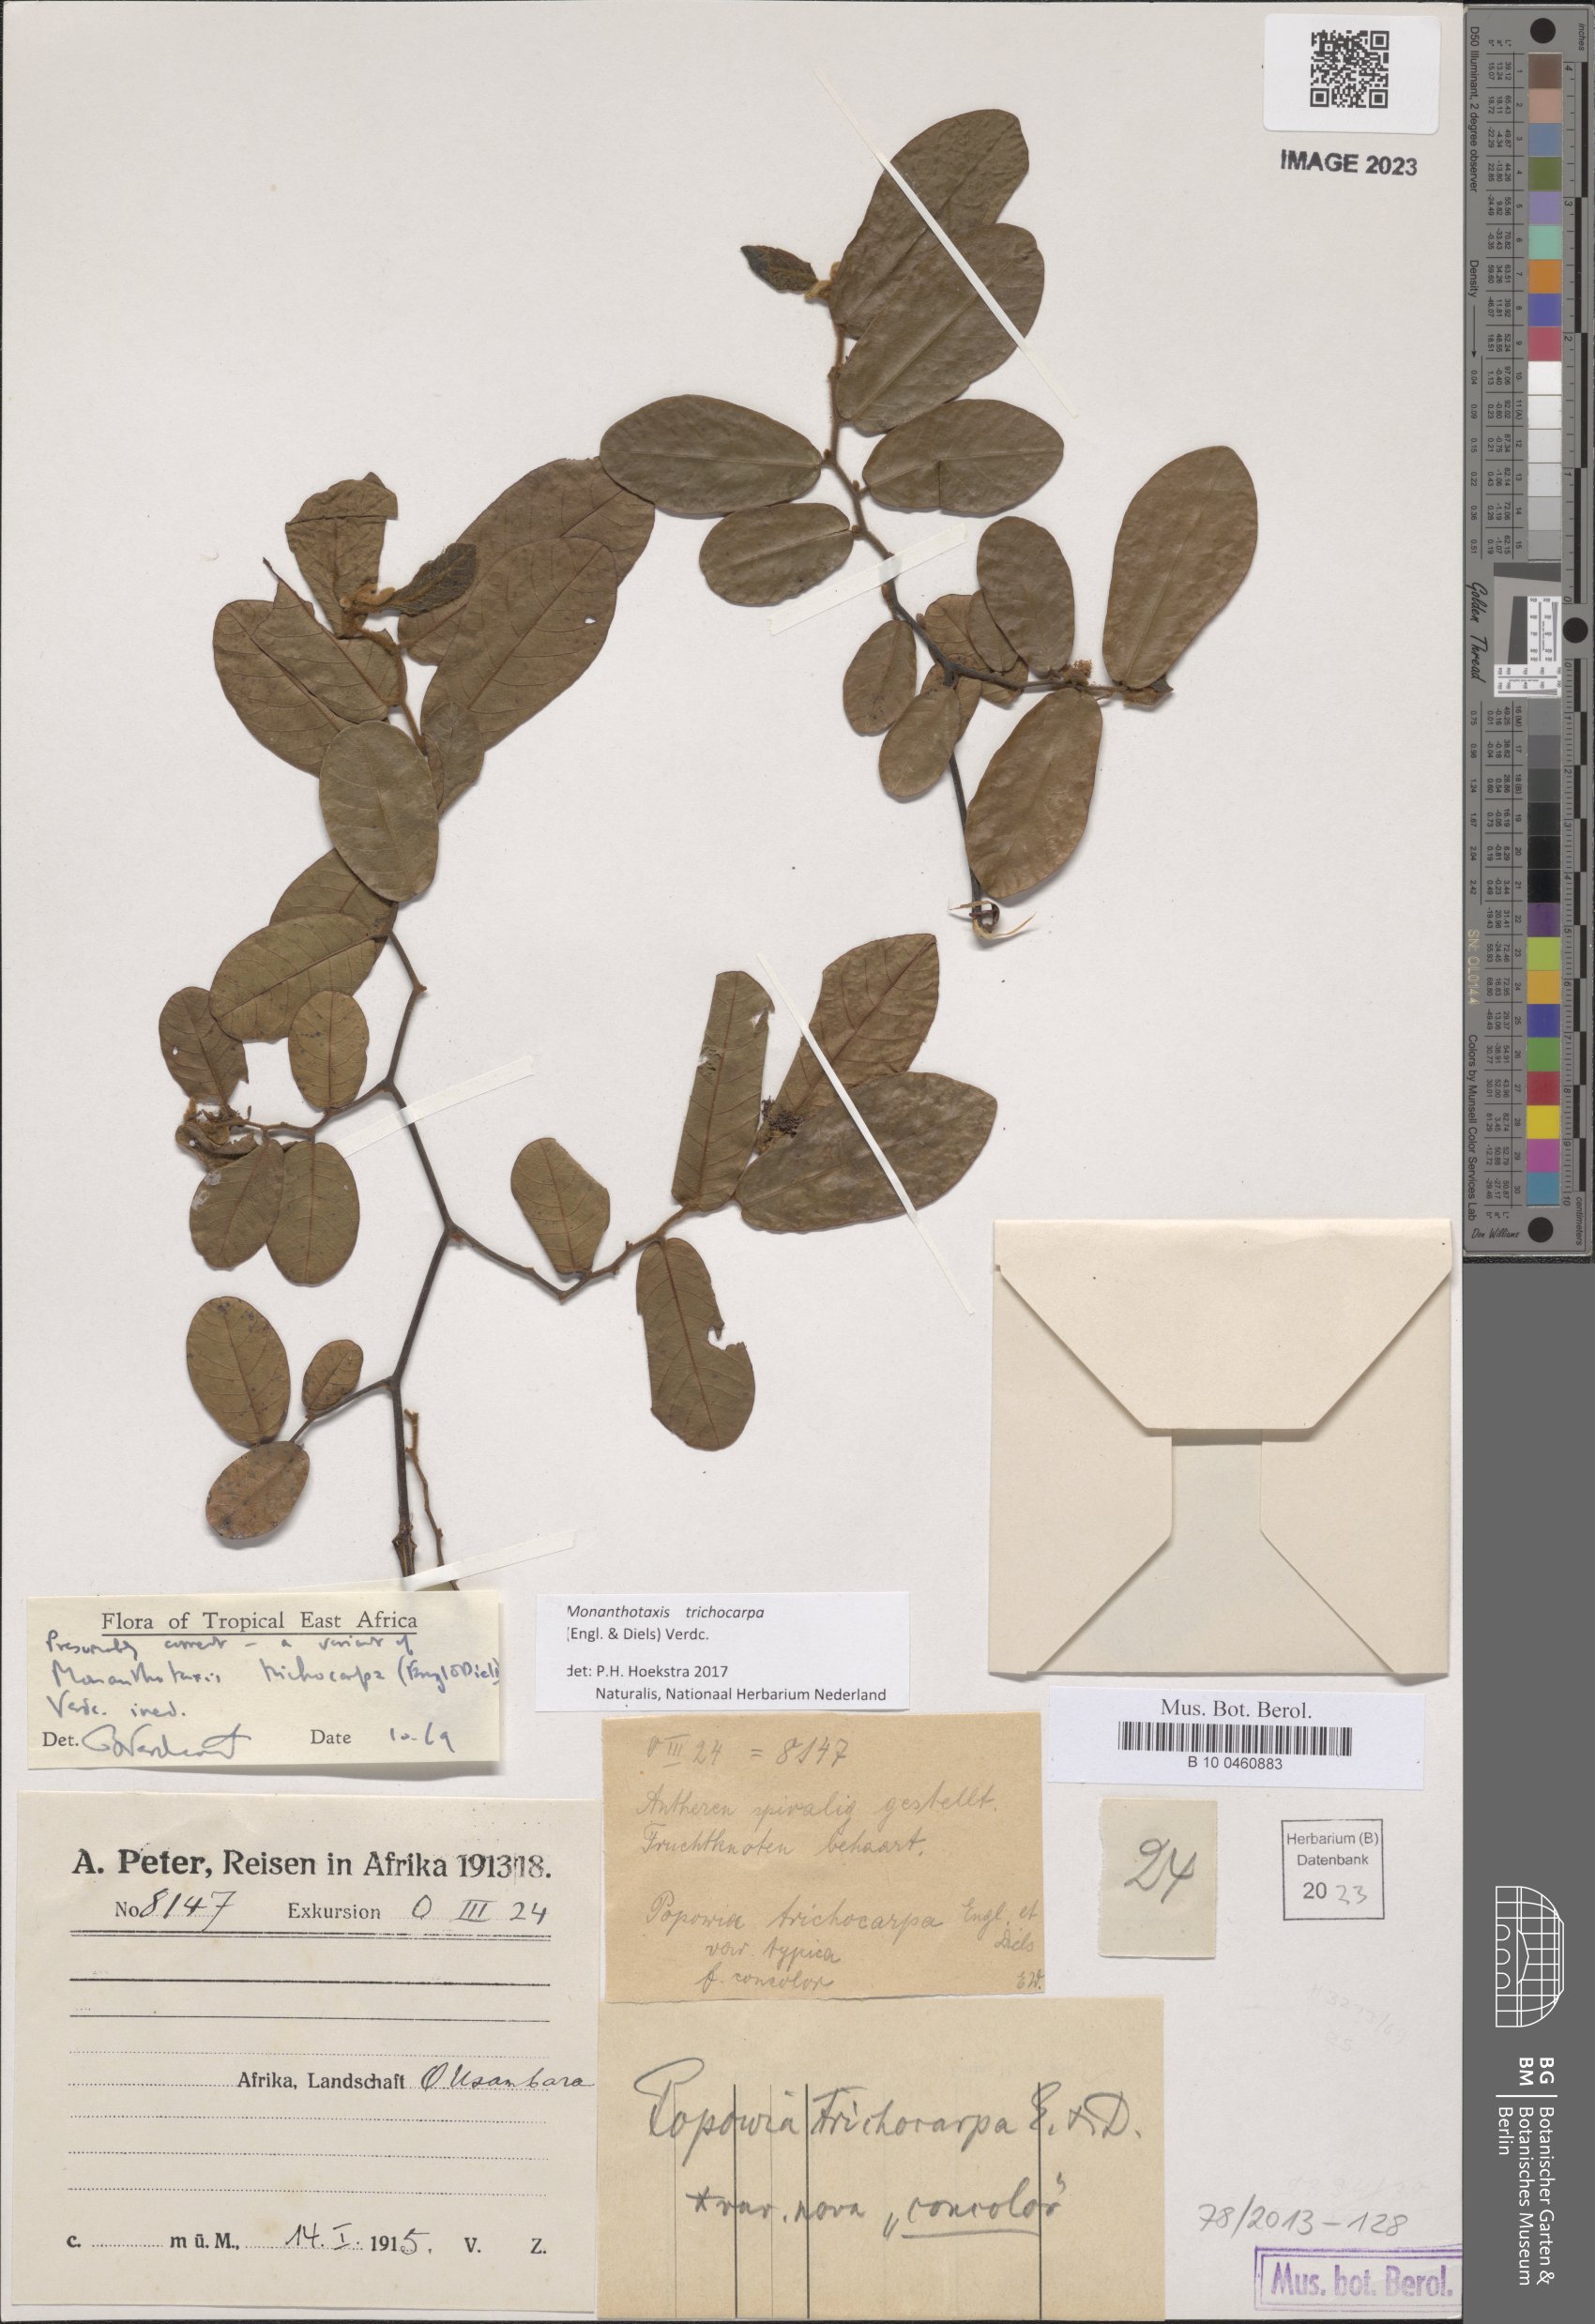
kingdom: Plantae
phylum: Tracheophyta
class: Magnoliopsida
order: Magnoliales
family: Annonaceae
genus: Monanthotaxis
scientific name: Monanthotaxis trichocarpa
